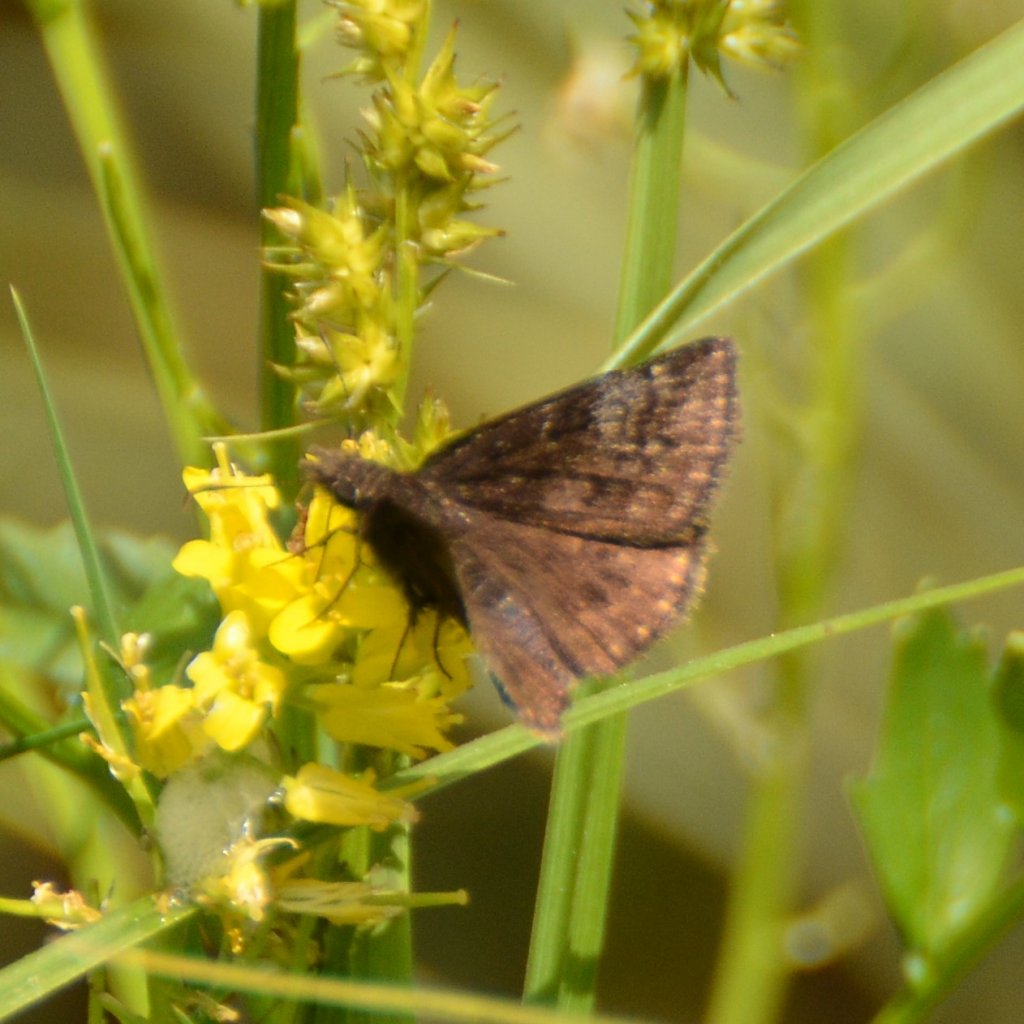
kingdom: Animalia
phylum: Arthropoda
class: Insecta
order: Lepidoptera
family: Hesperiidae
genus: Erynnis
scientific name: Erynnis icelus
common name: Dreamy Duskywing
